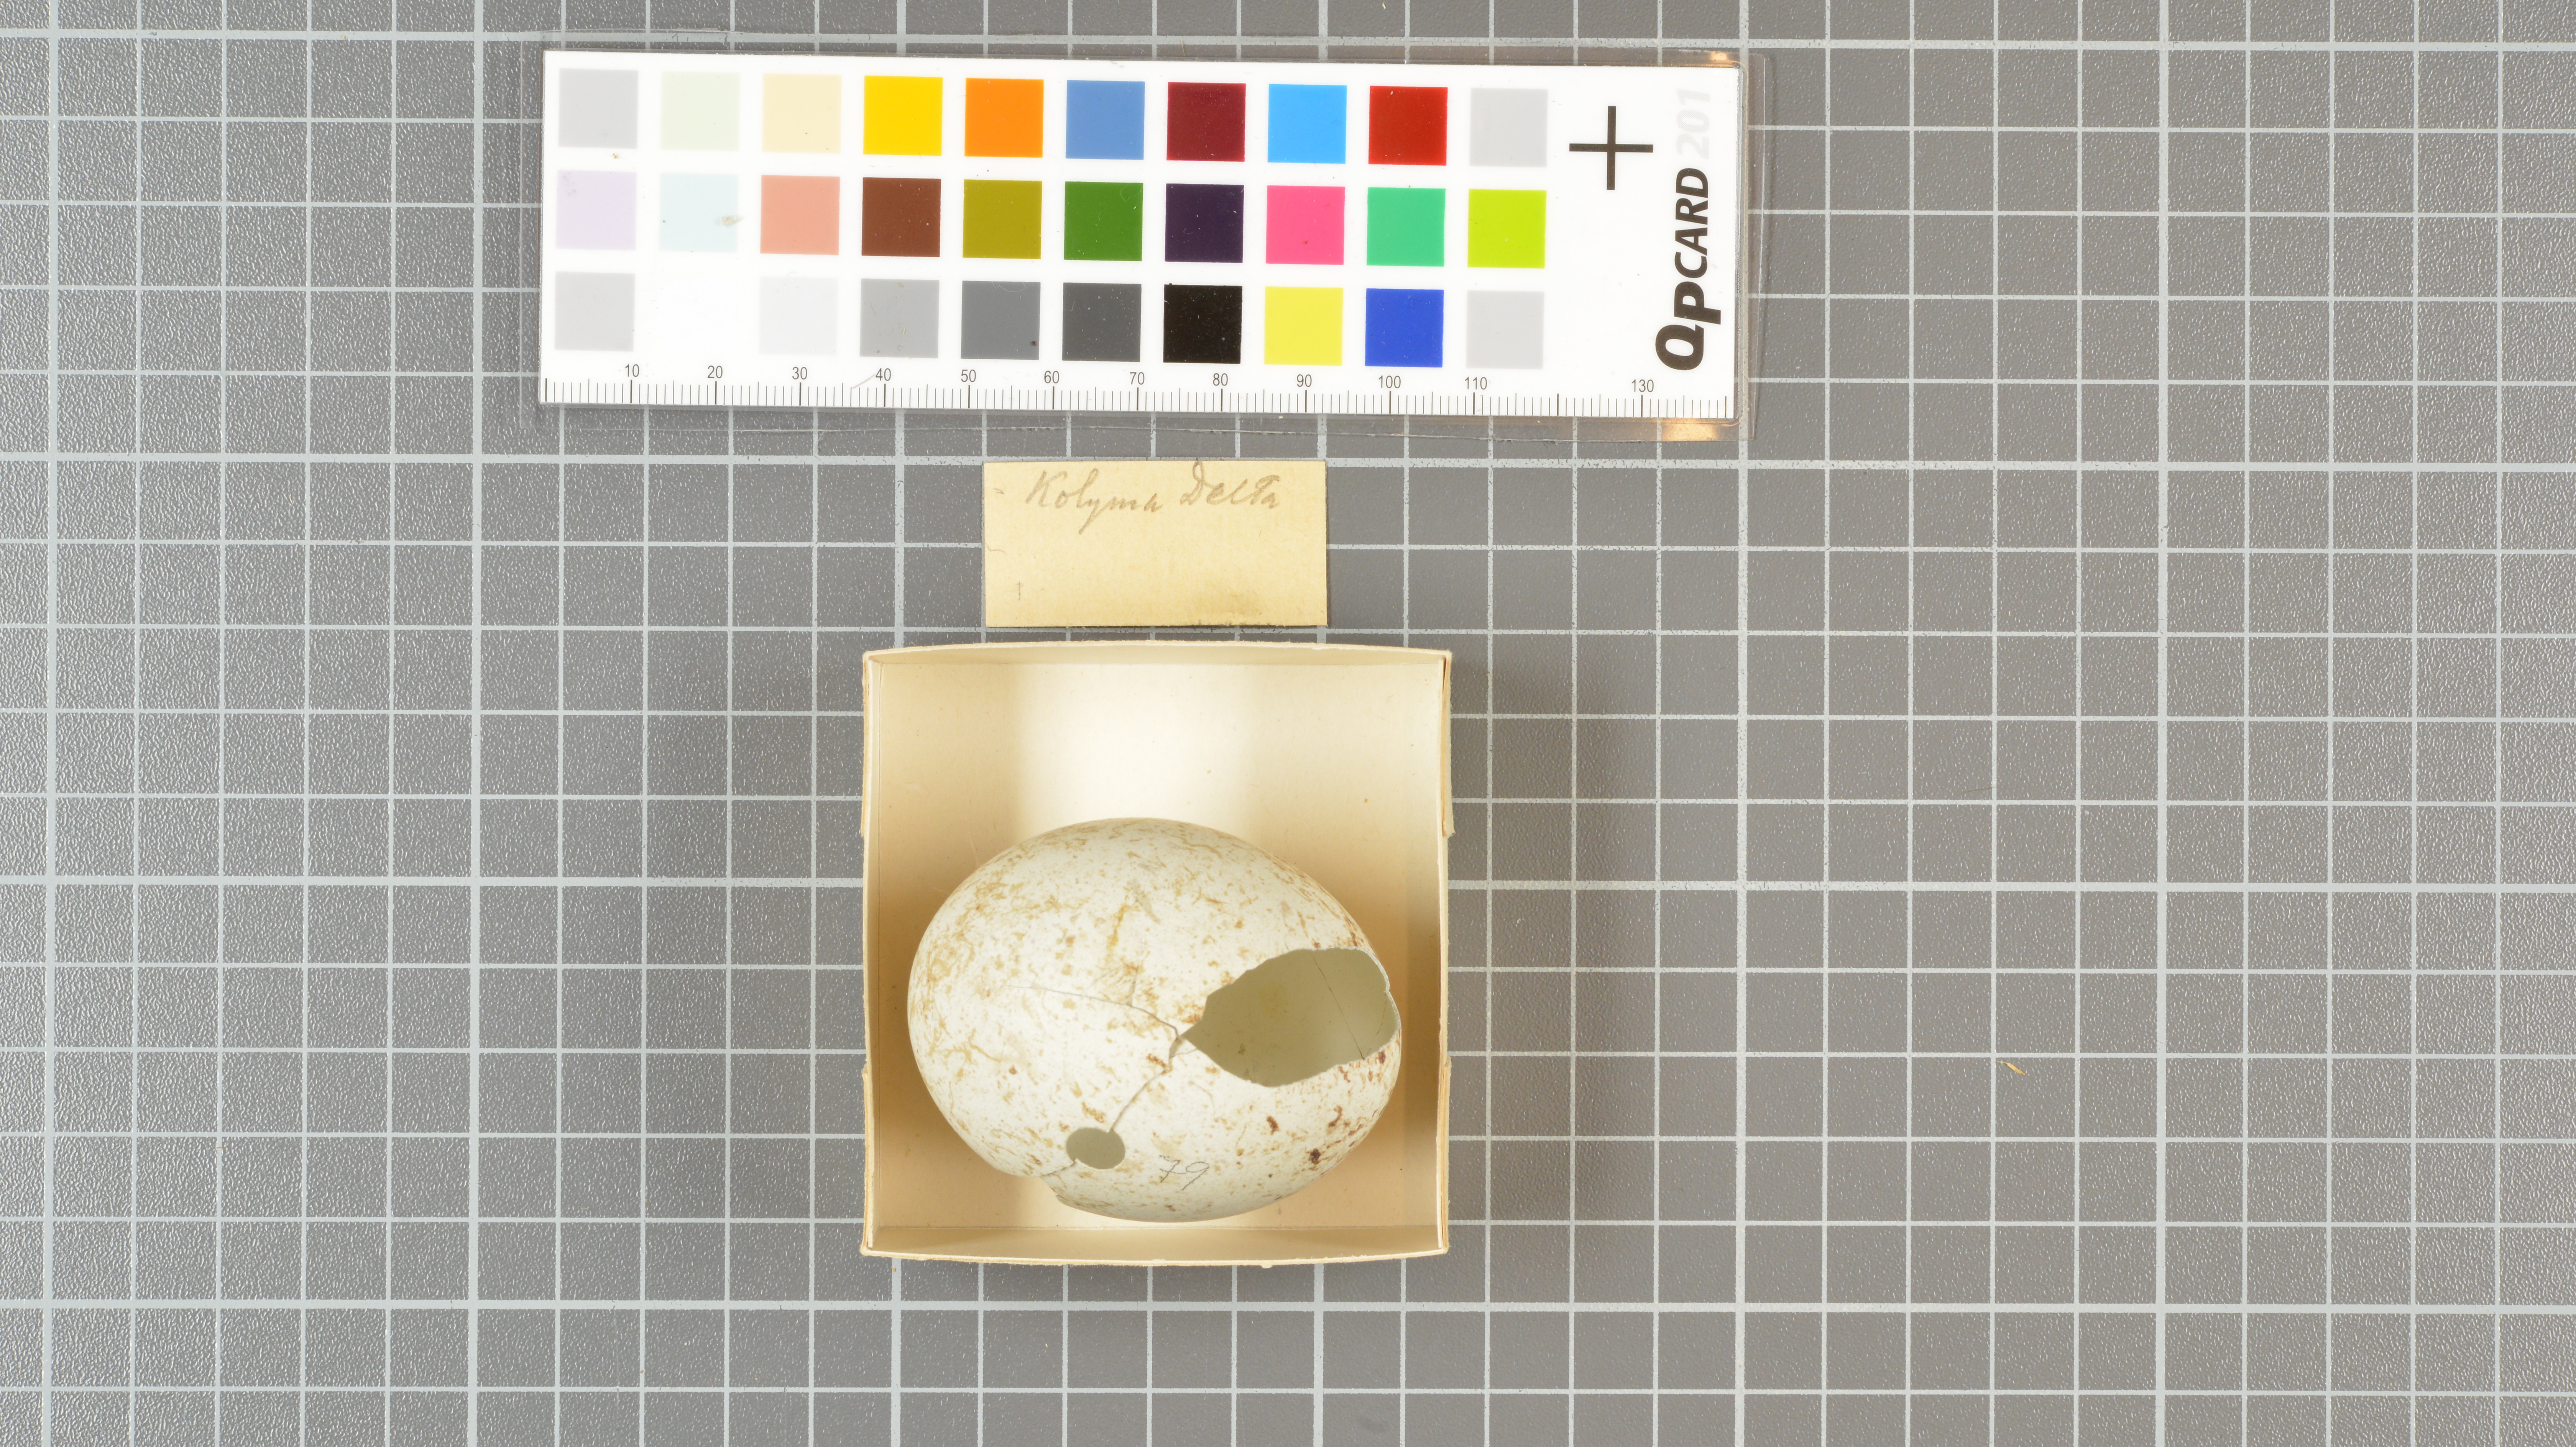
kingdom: Animalia
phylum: Chordata
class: Aves
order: Accipitriformes
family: Accipitridae
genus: Buteo
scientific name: Buteo lagopus
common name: Rough-legged buzzard
